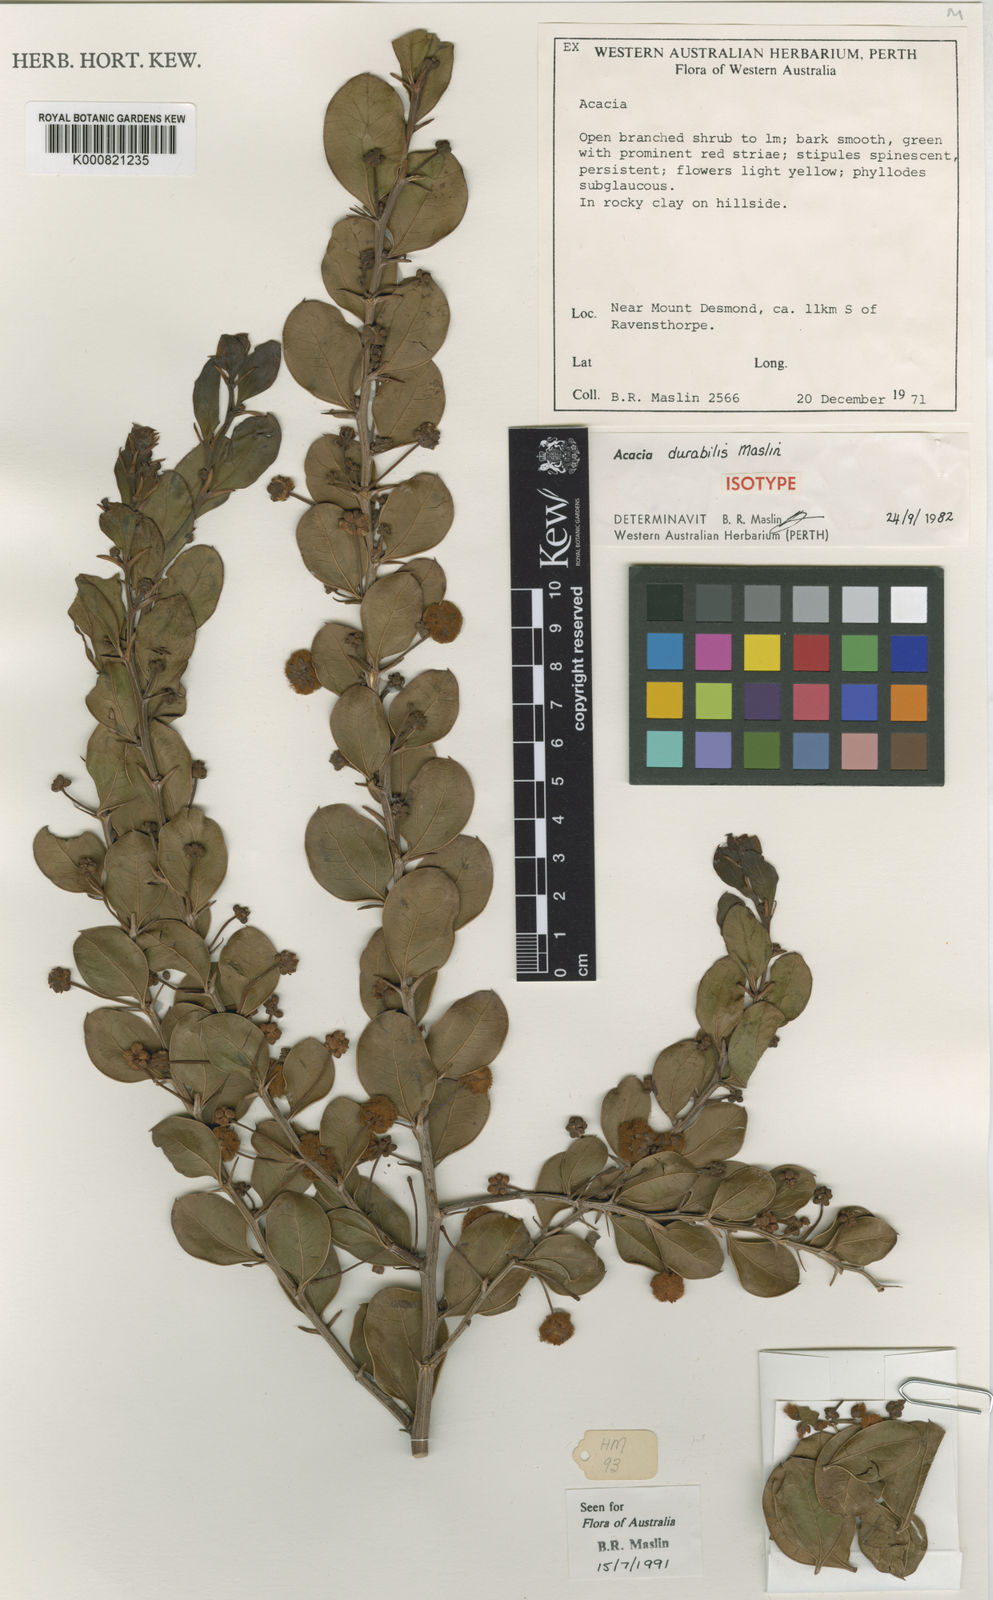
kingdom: Plantae
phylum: Tracheophyta
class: Magnoliopsida
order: Fabales
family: Fabaceae
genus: Acacia
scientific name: Acacia durabilis
